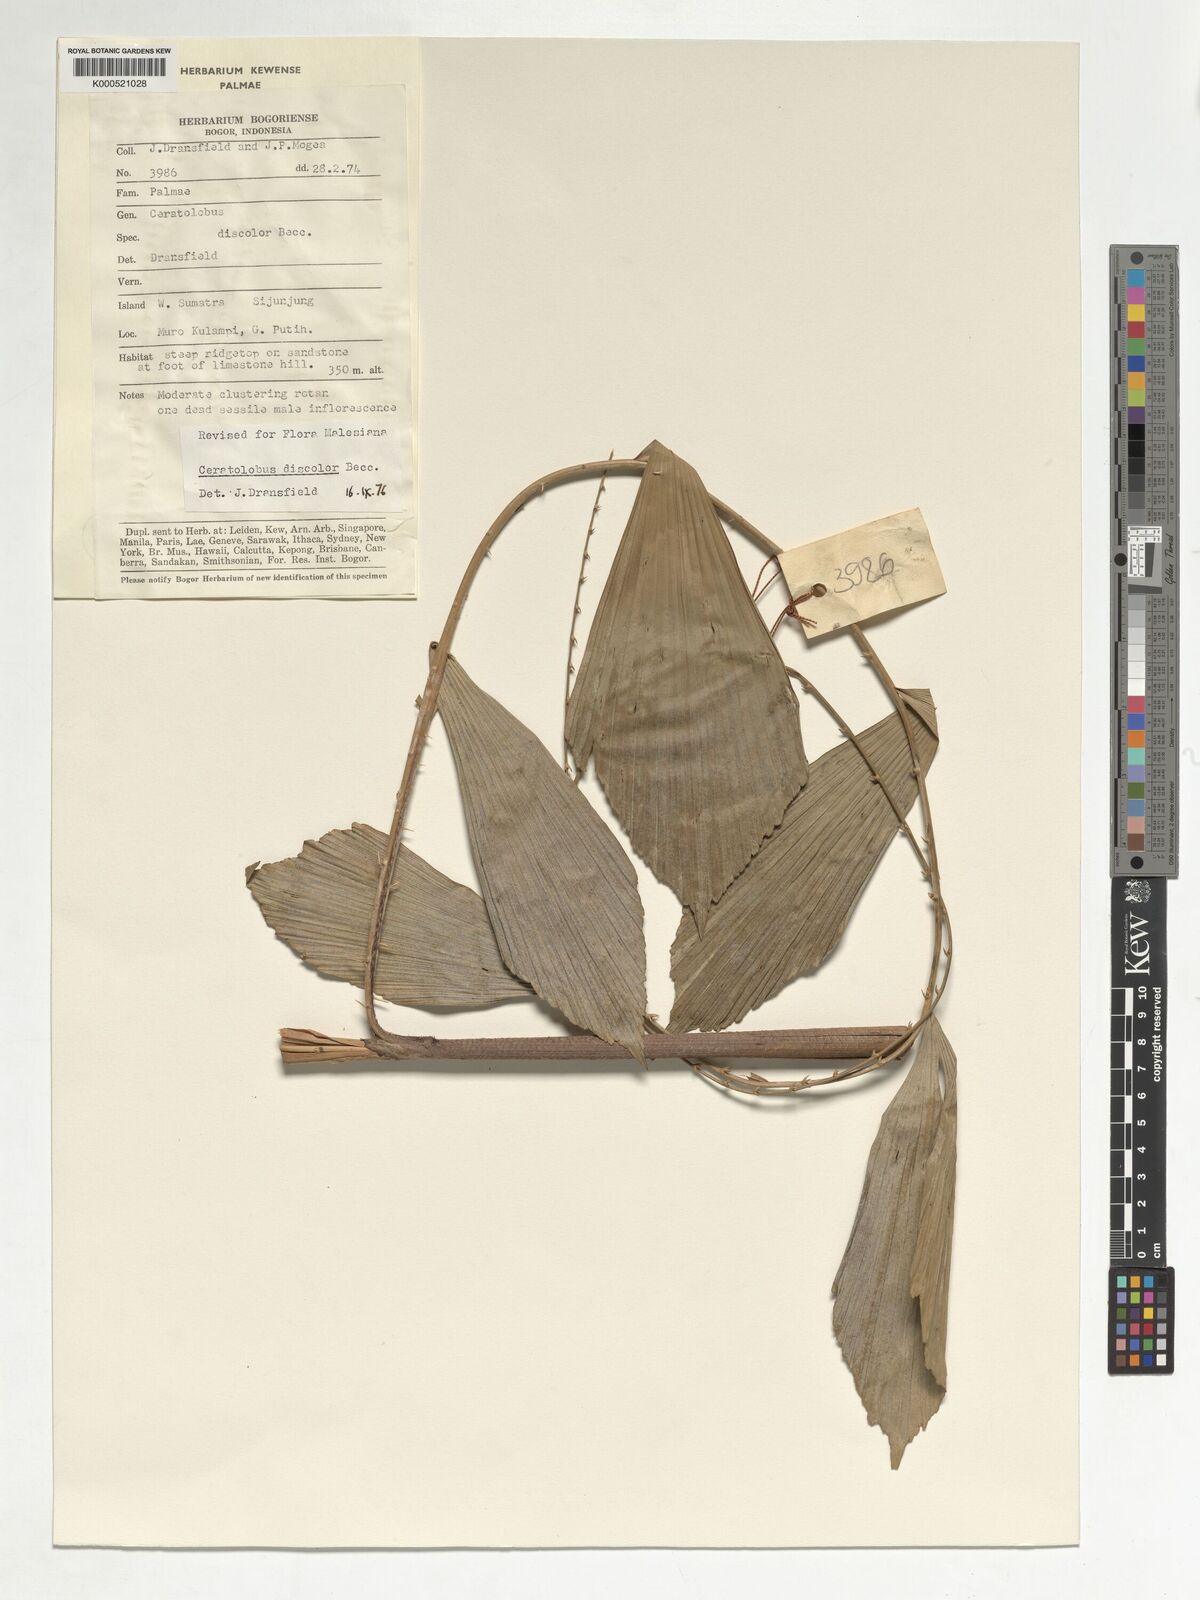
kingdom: Plantae
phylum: Tracheophyta
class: Liliopsida
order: Arecales
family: Arecaceae
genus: Calamus
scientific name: Calamus hallierianus
